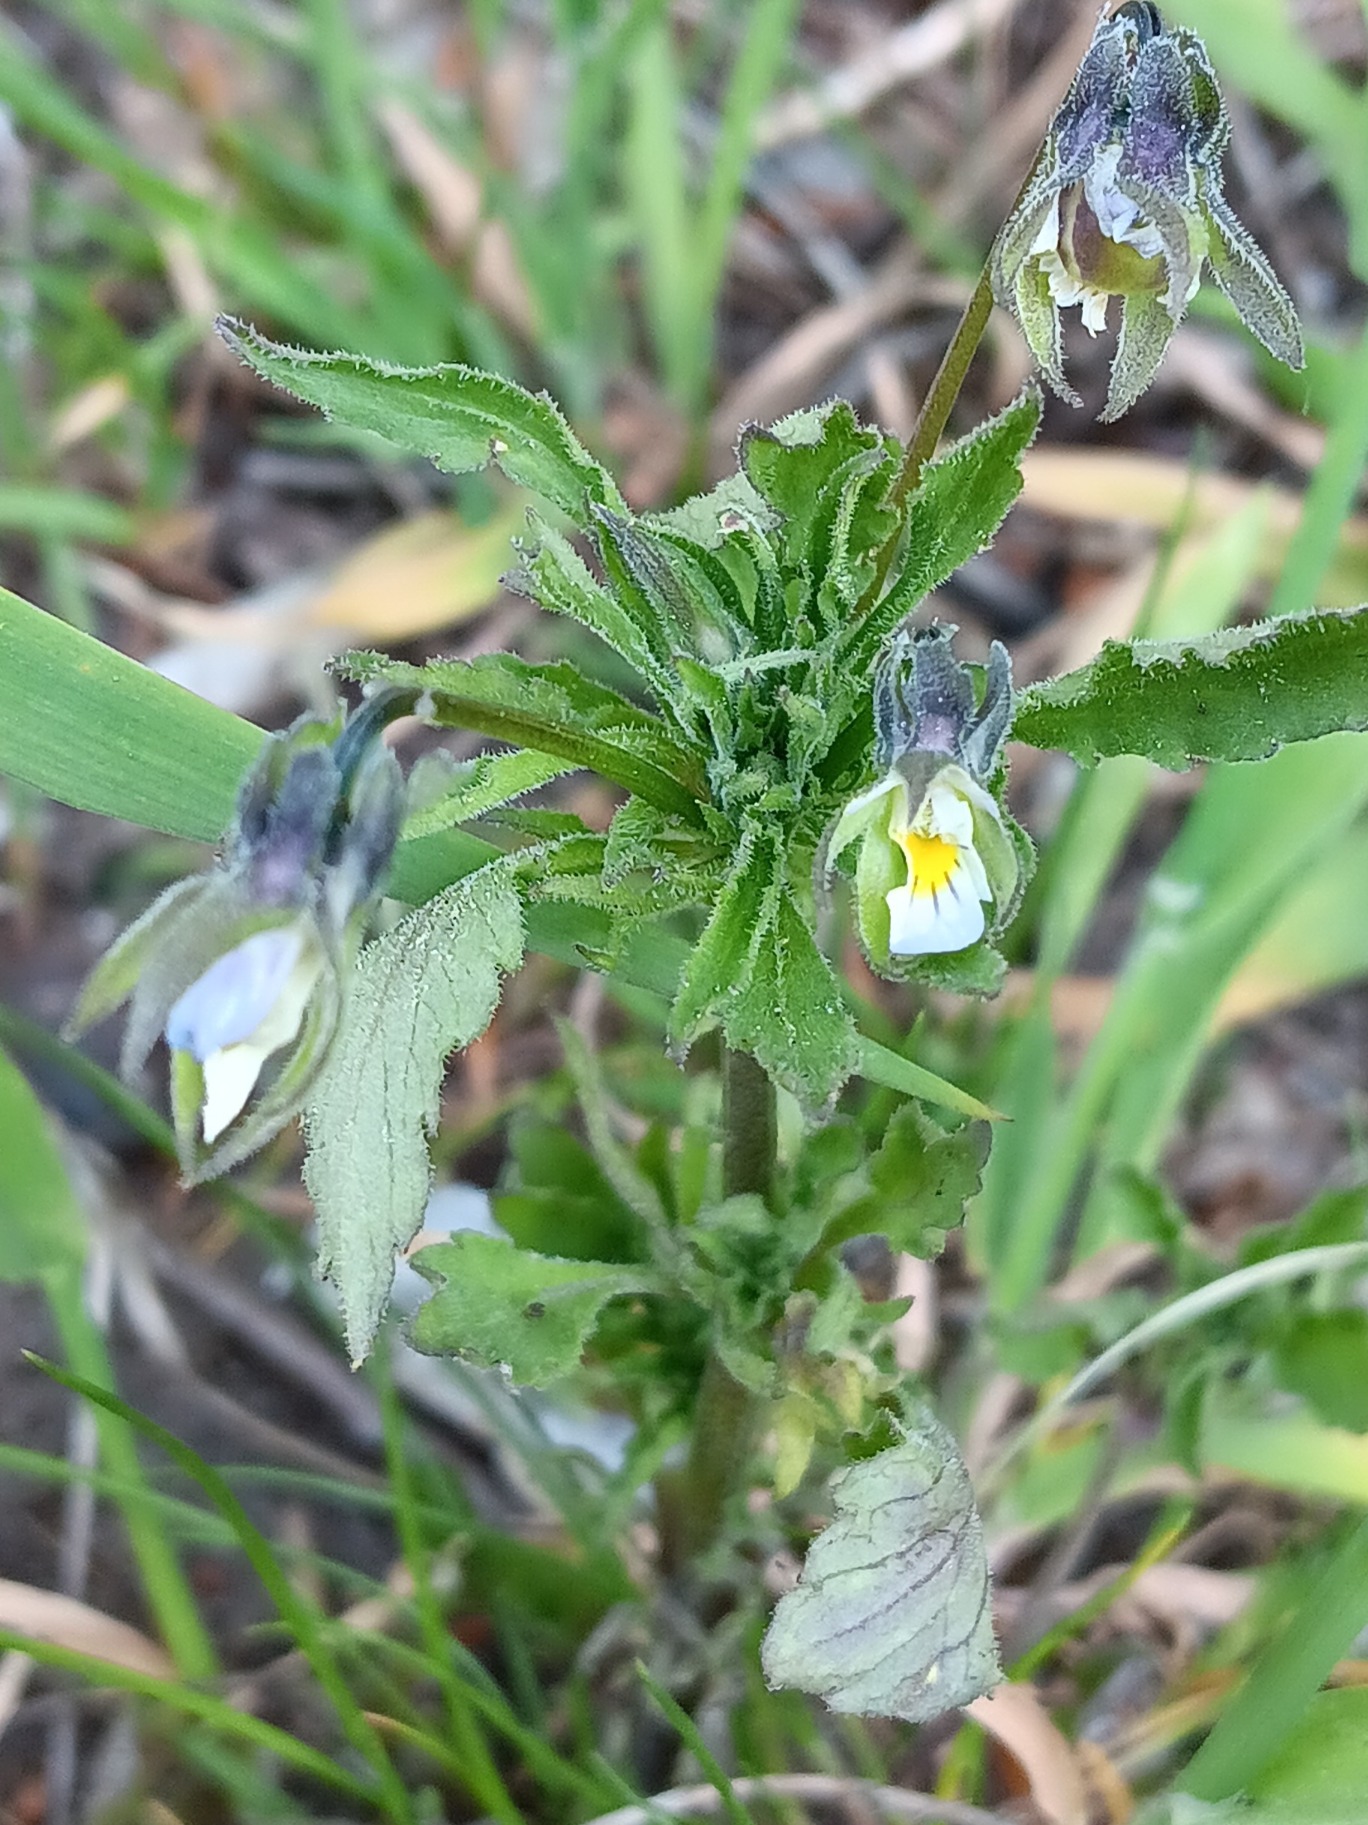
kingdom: Plantae
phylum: Tracheophyta
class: Magnoliopsida
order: Malpighiales
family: Violaceae
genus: Viola
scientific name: Viola arvensis
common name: Ager-stedmoderblomst
